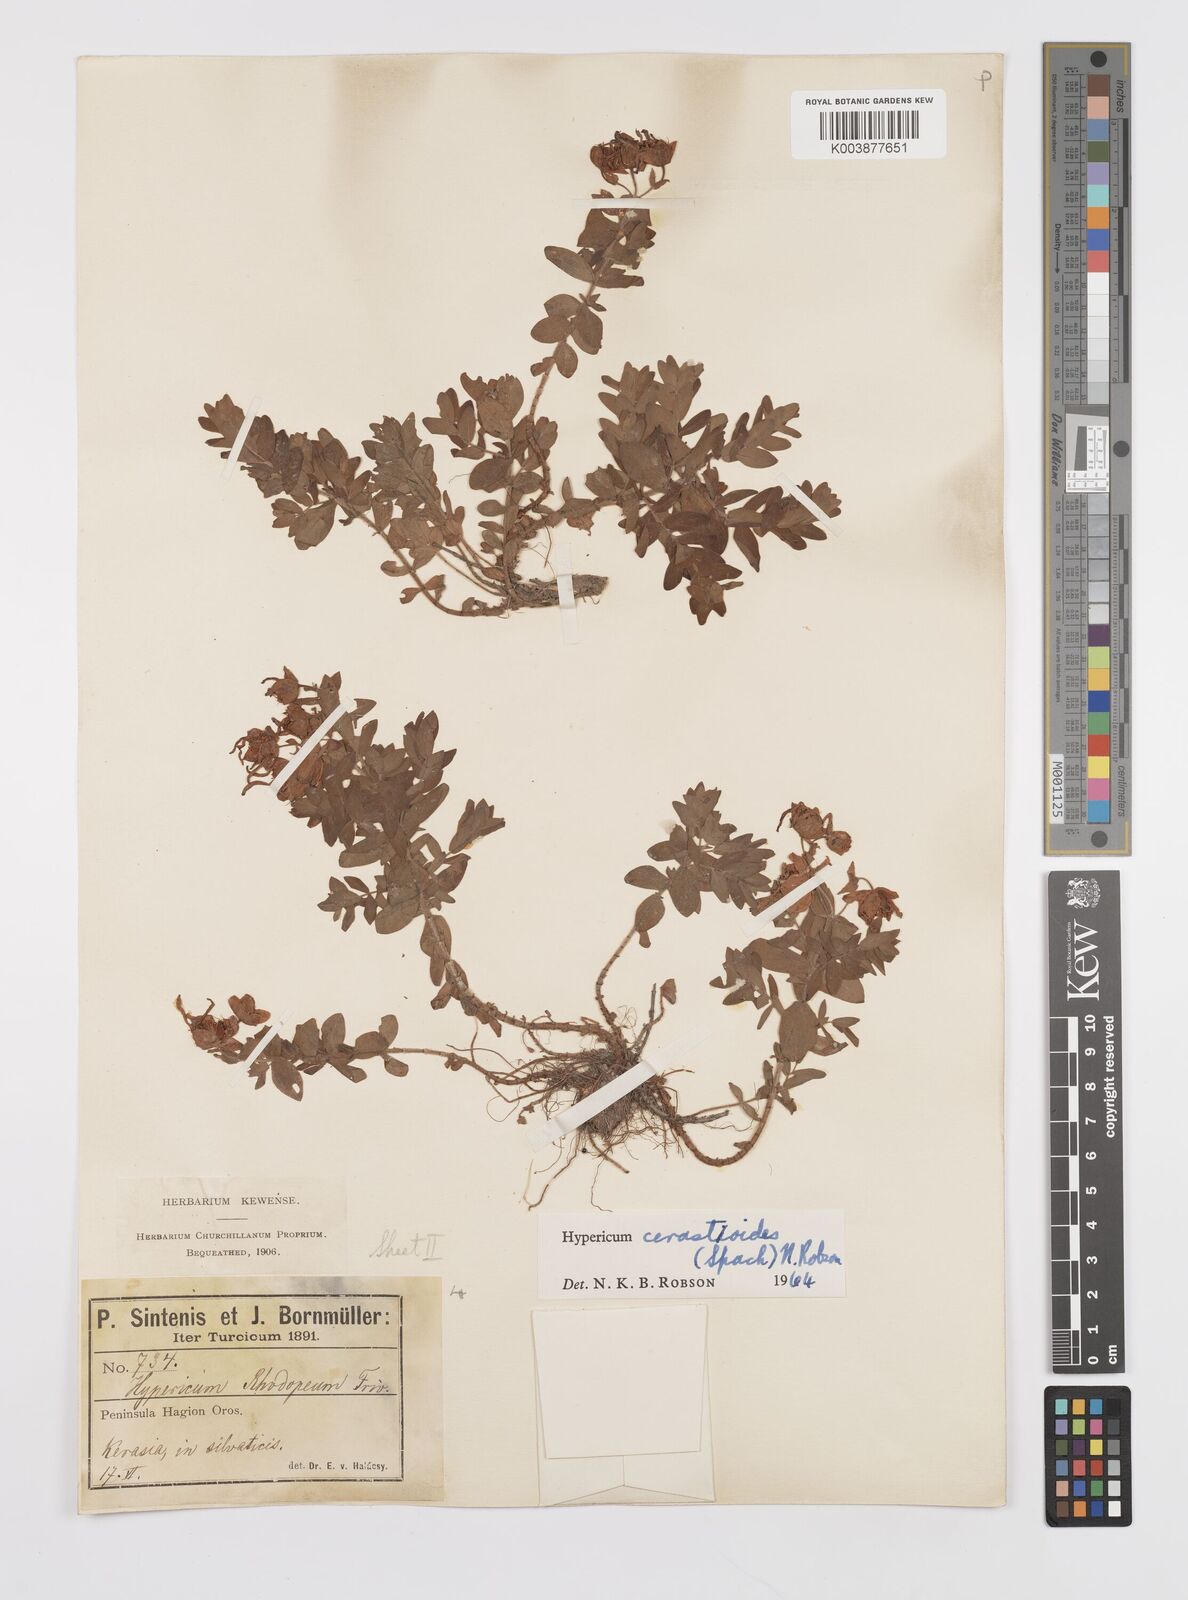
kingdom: Plantae
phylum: Tracheophyta
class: Magnoliopsida
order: Malpighiales
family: Hypericaceae
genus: Hypericum
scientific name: Hypericum cerastoides
